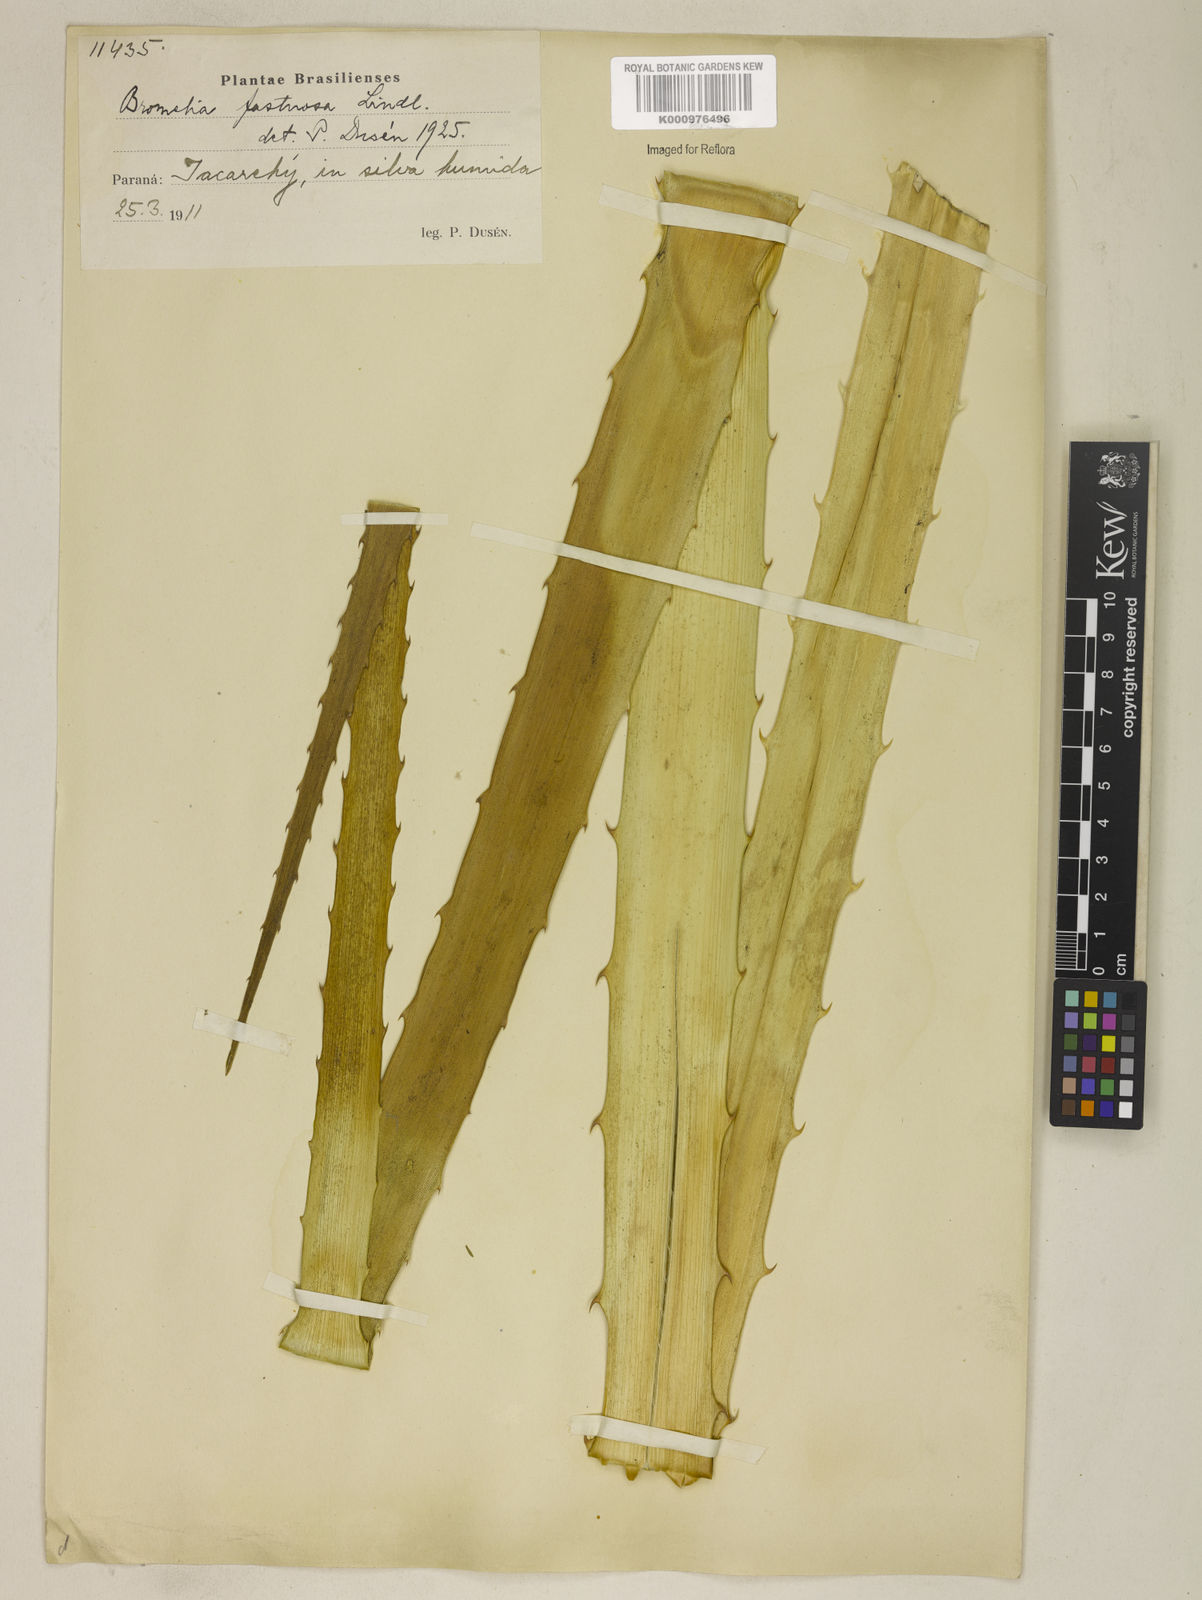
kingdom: Plantae
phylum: Tracheophyta
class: Liliopsida
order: Poales
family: Bromeliaceae
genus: Bromelia
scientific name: Bromelia antiacantha
